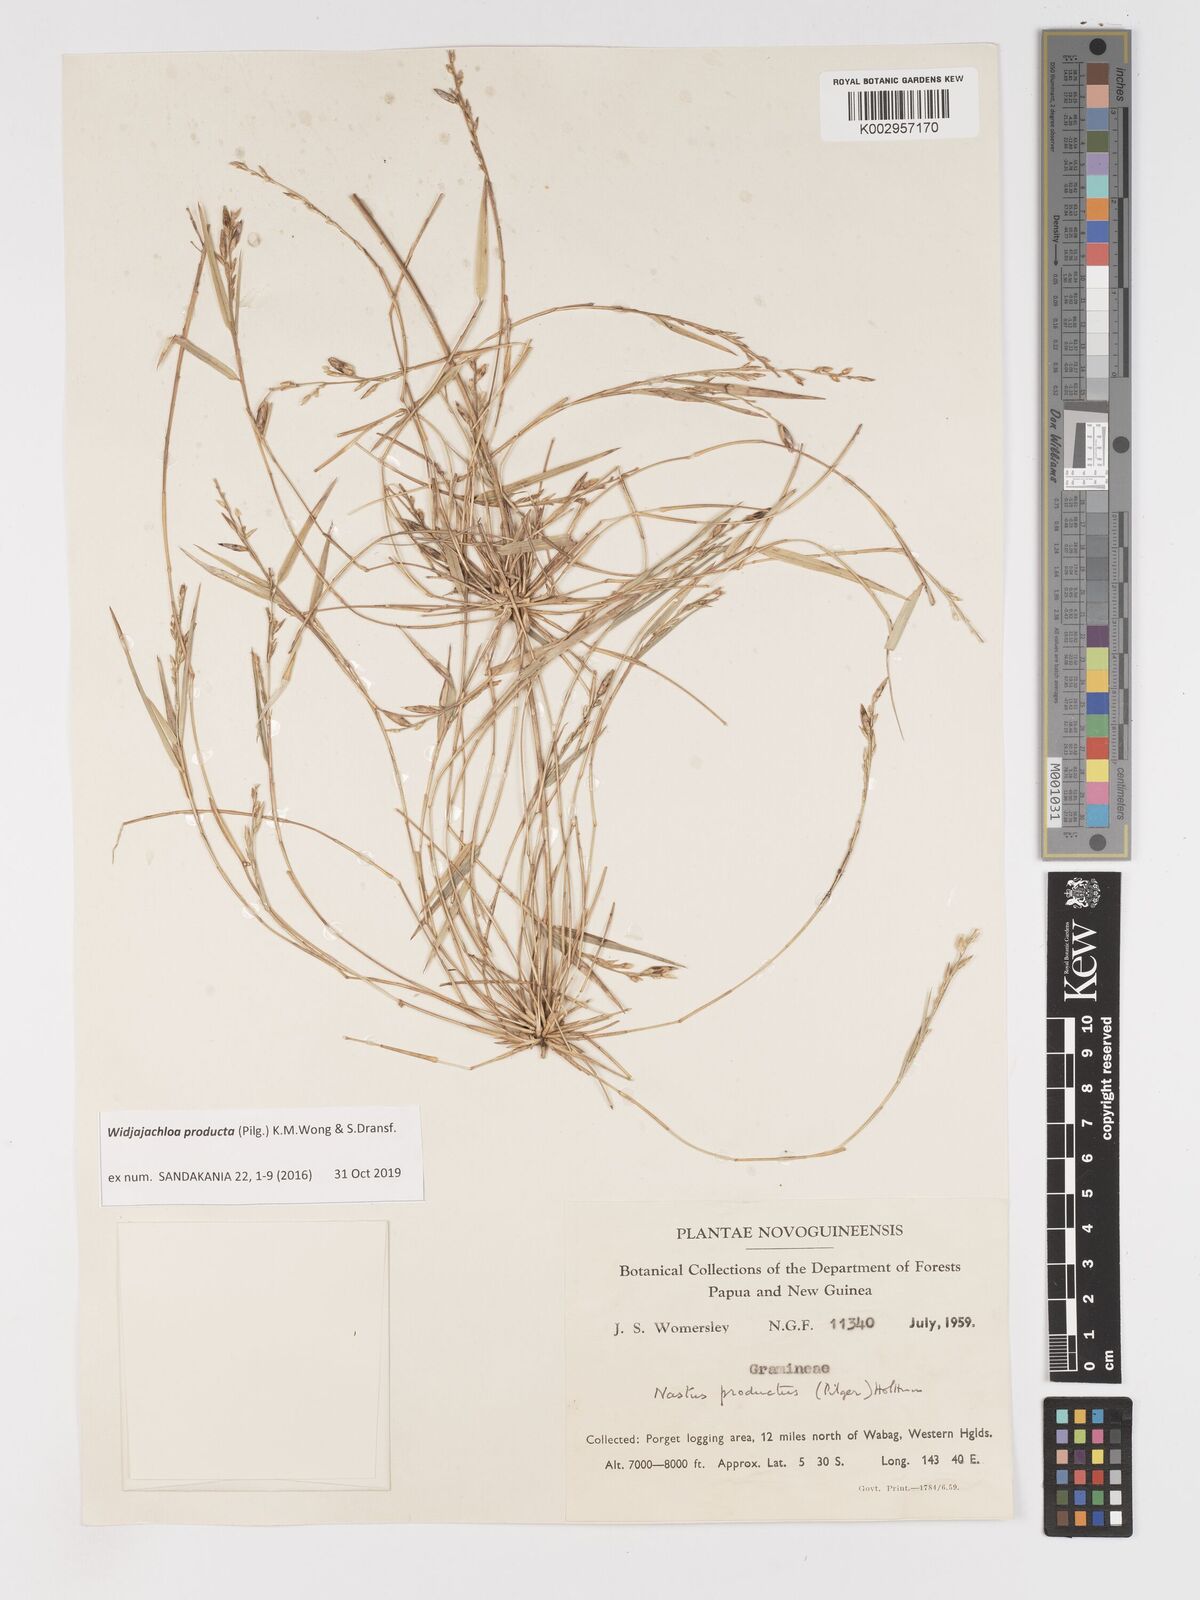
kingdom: Plantae
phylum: Tracheophyta
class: Liliopsida
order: Poales
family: Poaceae
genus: Widjajachloa
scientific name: Widjajachloa producta
